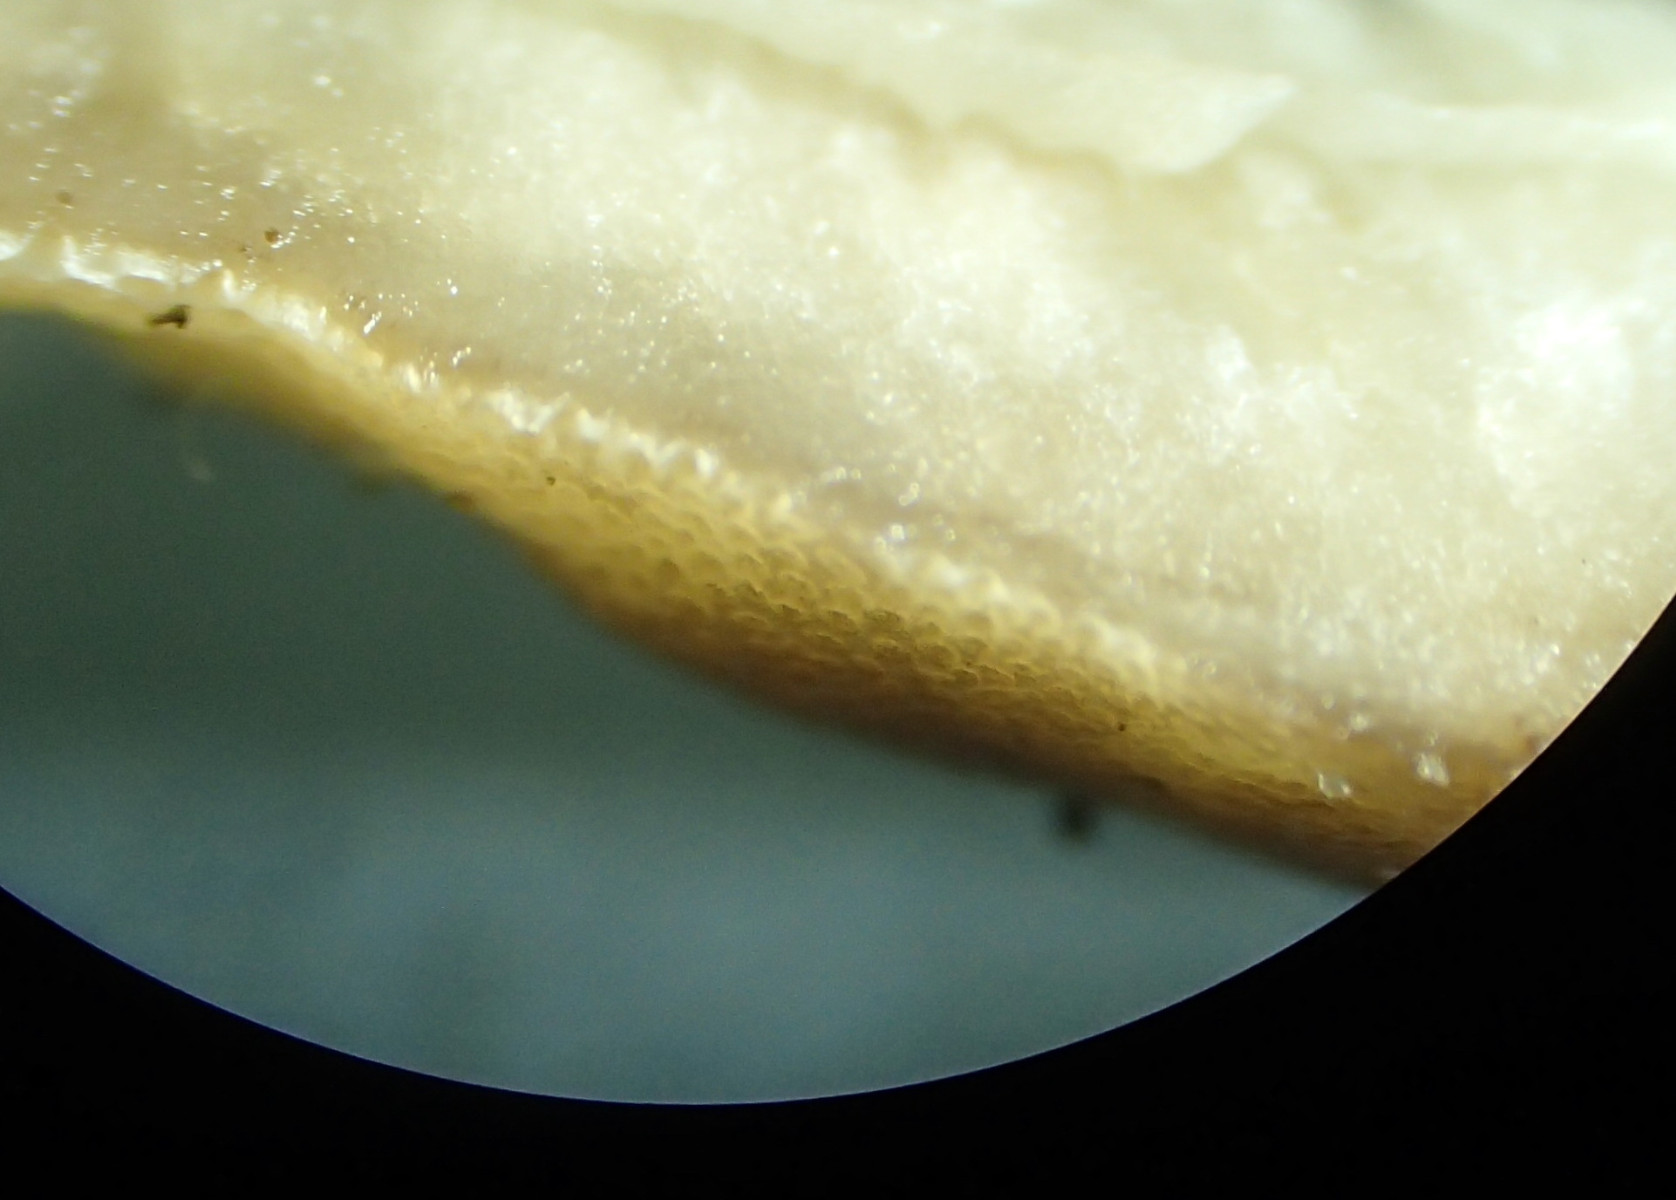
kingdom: Fungi
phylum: Basidiomycota
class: Agaricomycetes
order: Polyporales
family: Meripilaceae
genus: Meripilus
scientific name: Meripilus giganteus
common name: kæmpeporesvamp
